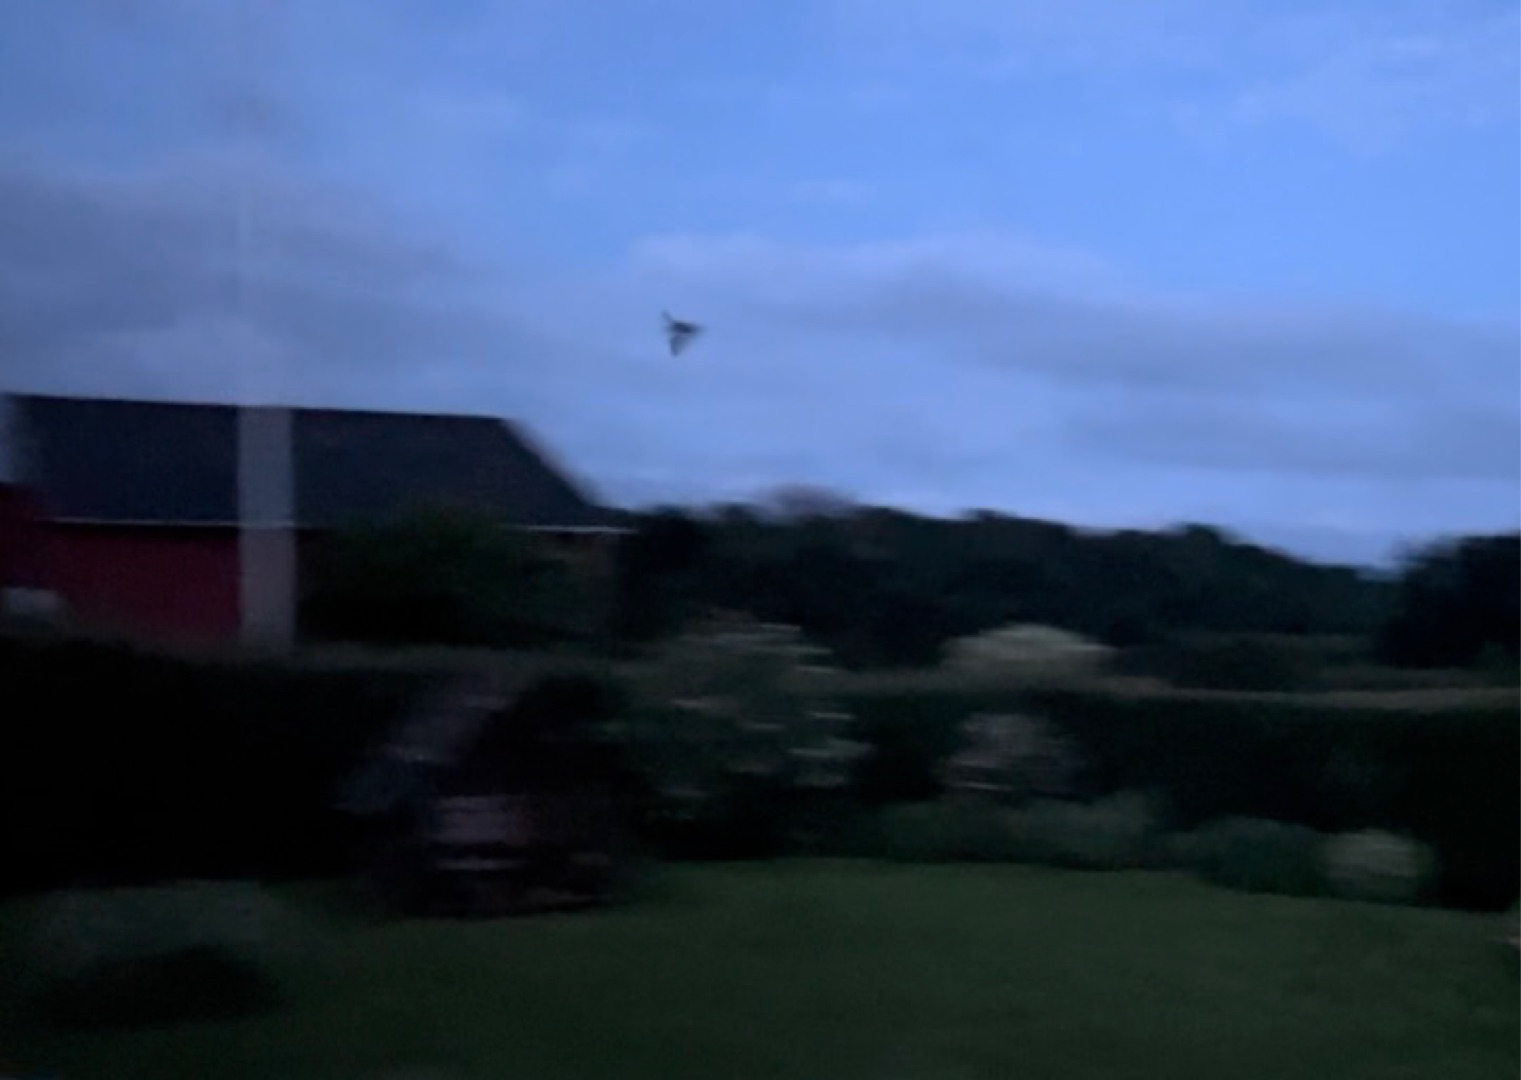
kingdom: Animalia
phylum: Chordata
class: Mammalia
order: Chiroptera
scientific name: Chiroptera
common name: Flagermus
